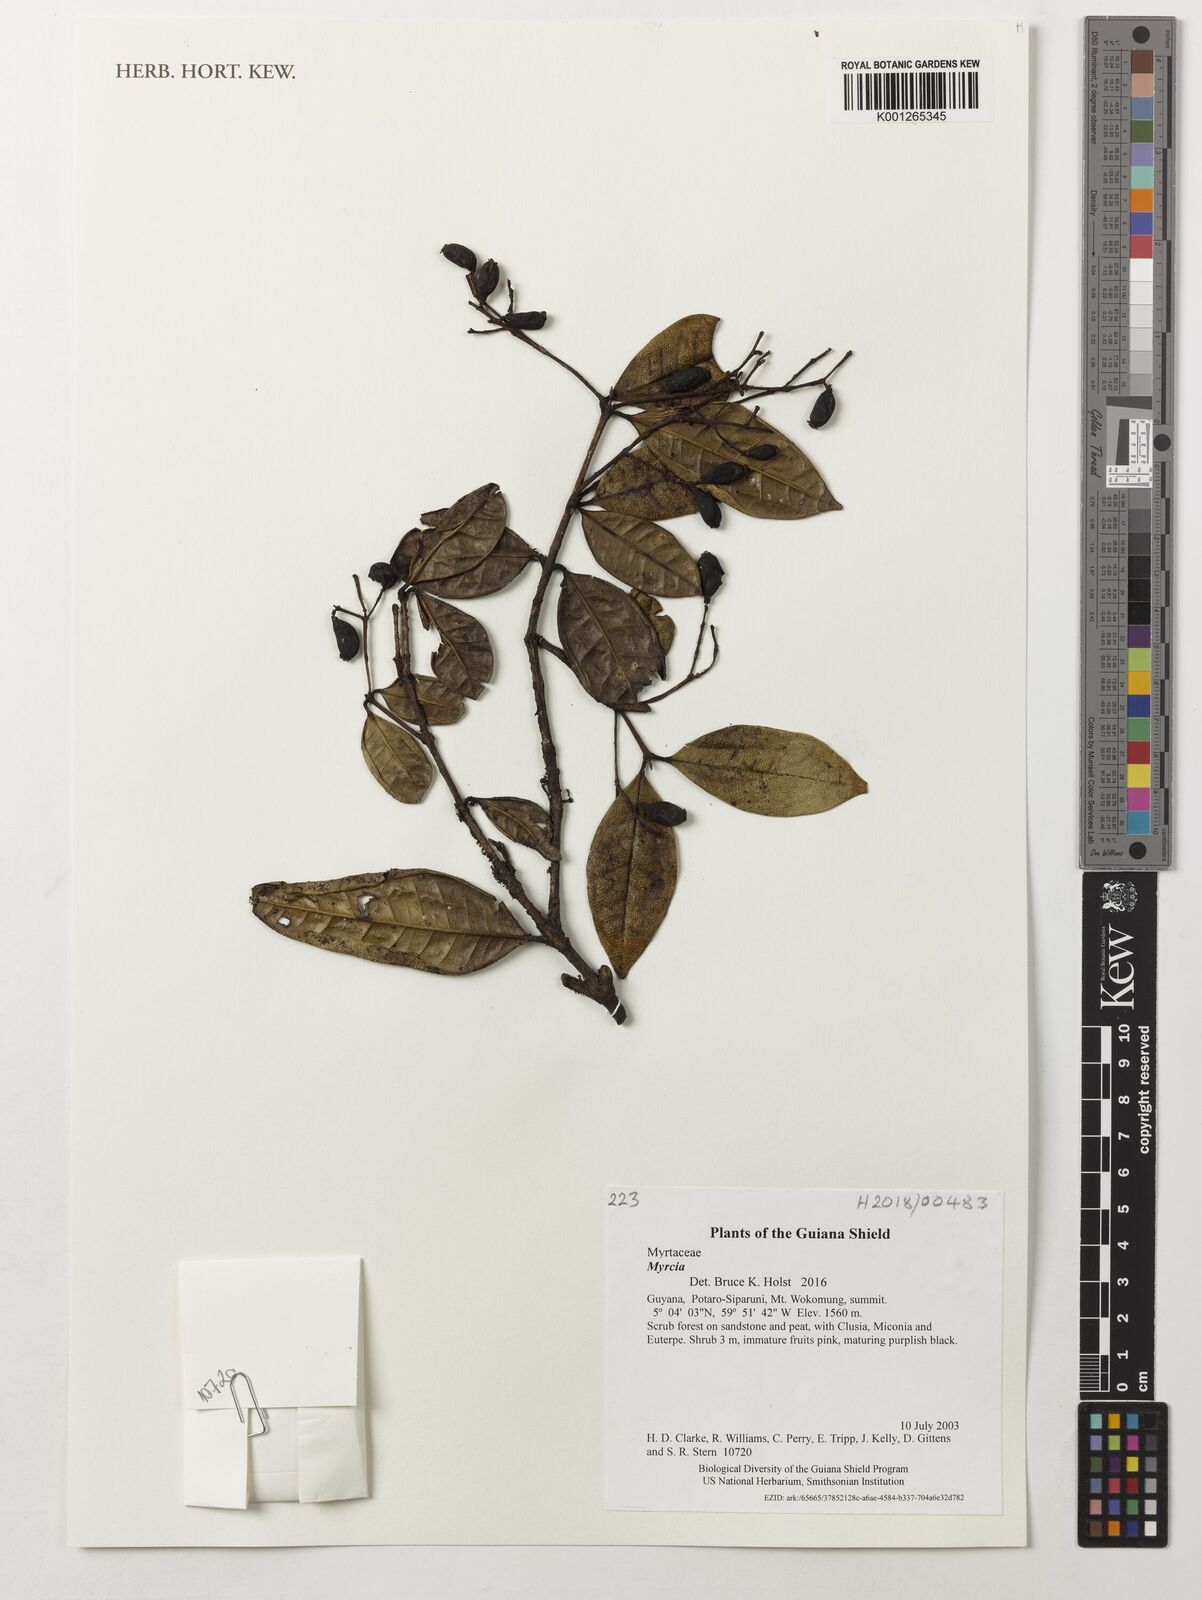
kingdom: Plantae
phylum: Tracheophyta
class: Magnoliopsida
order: Myrtales
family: Myrtaceae
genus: Myrcia
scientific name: Myrcia
